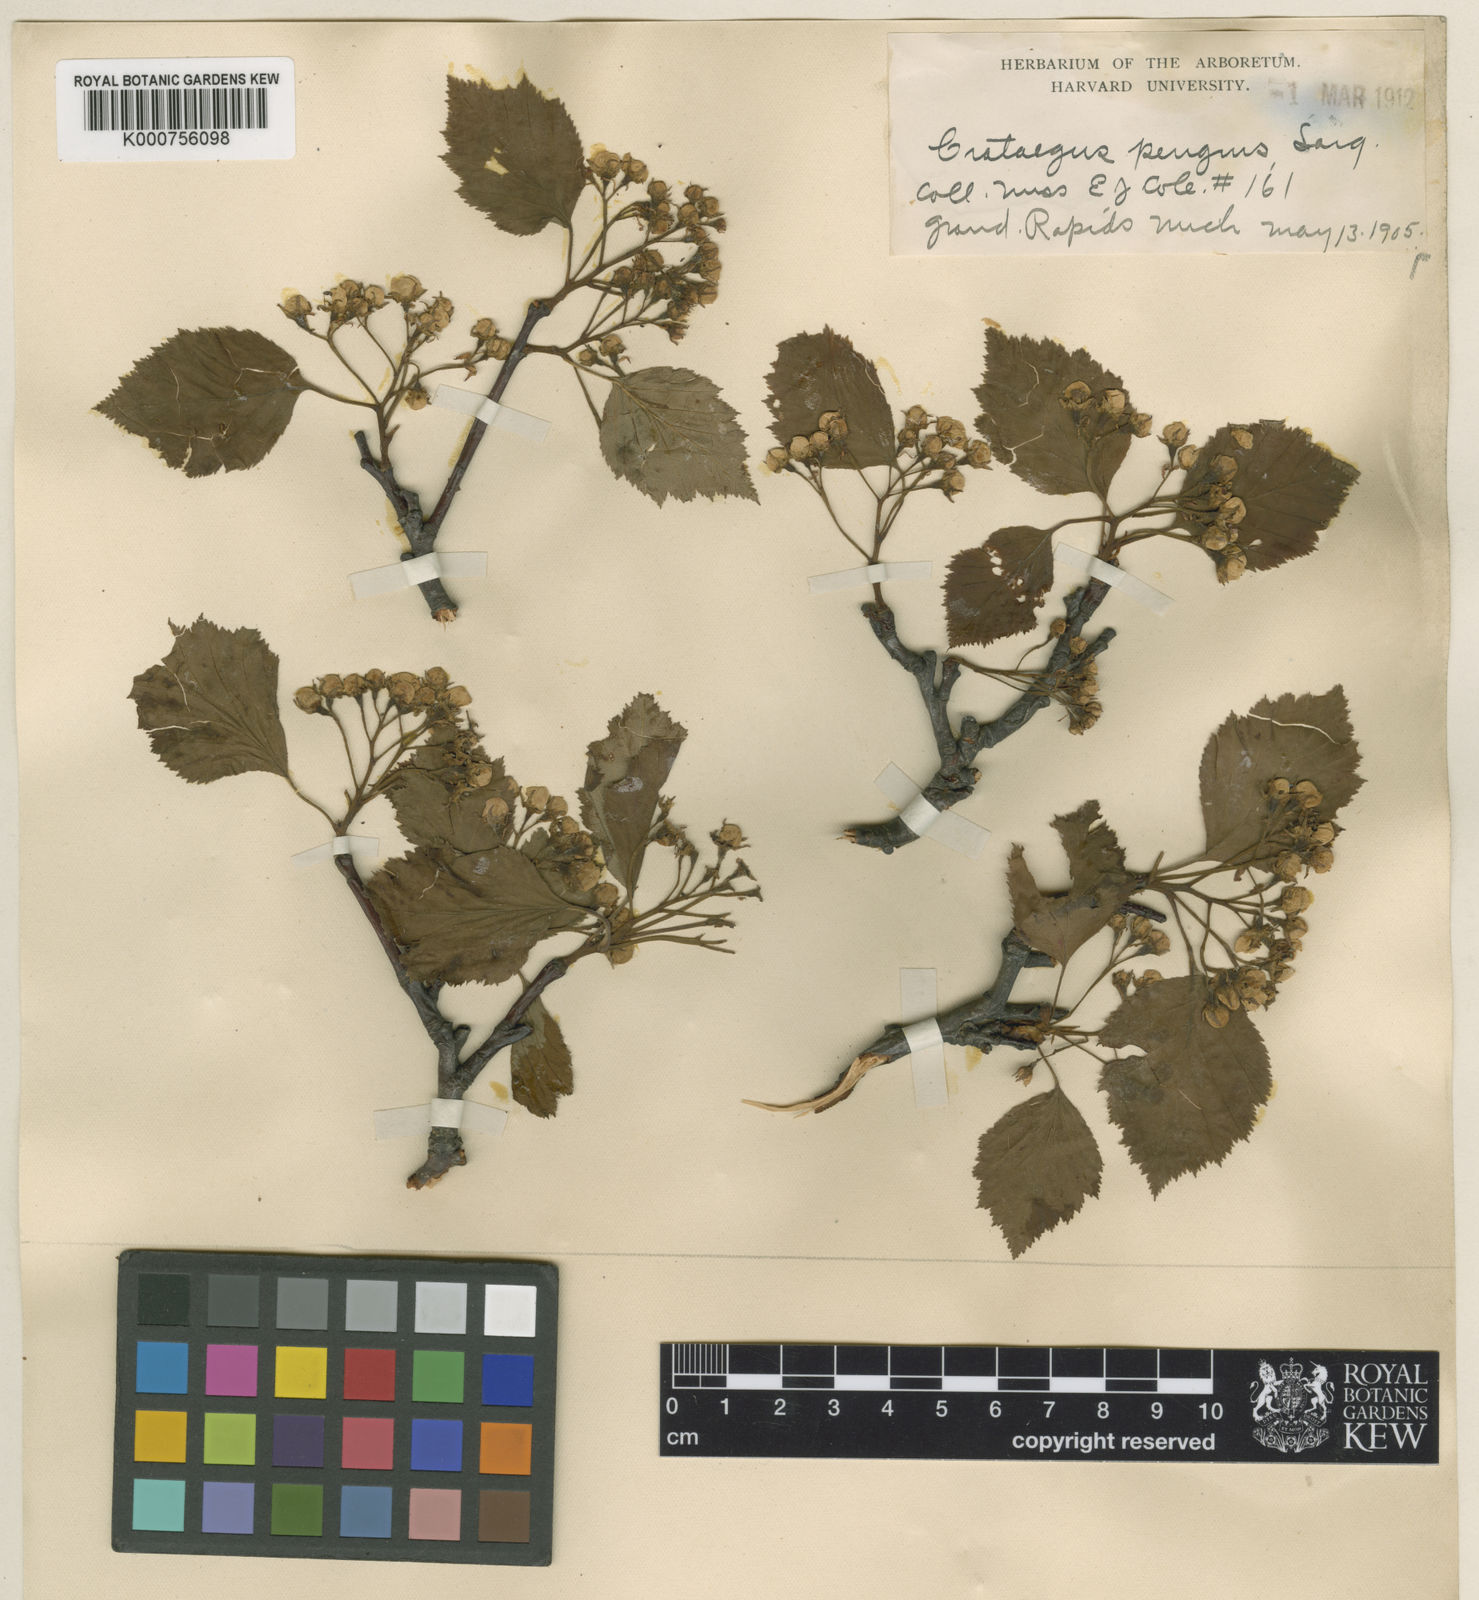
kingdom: Plantae
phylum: Tracheophyta
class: Magnoliopsida
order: Rosales
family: Rosaceae
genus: Crataegus
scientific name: Crataegus scabrida
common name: Rough hawthorn
